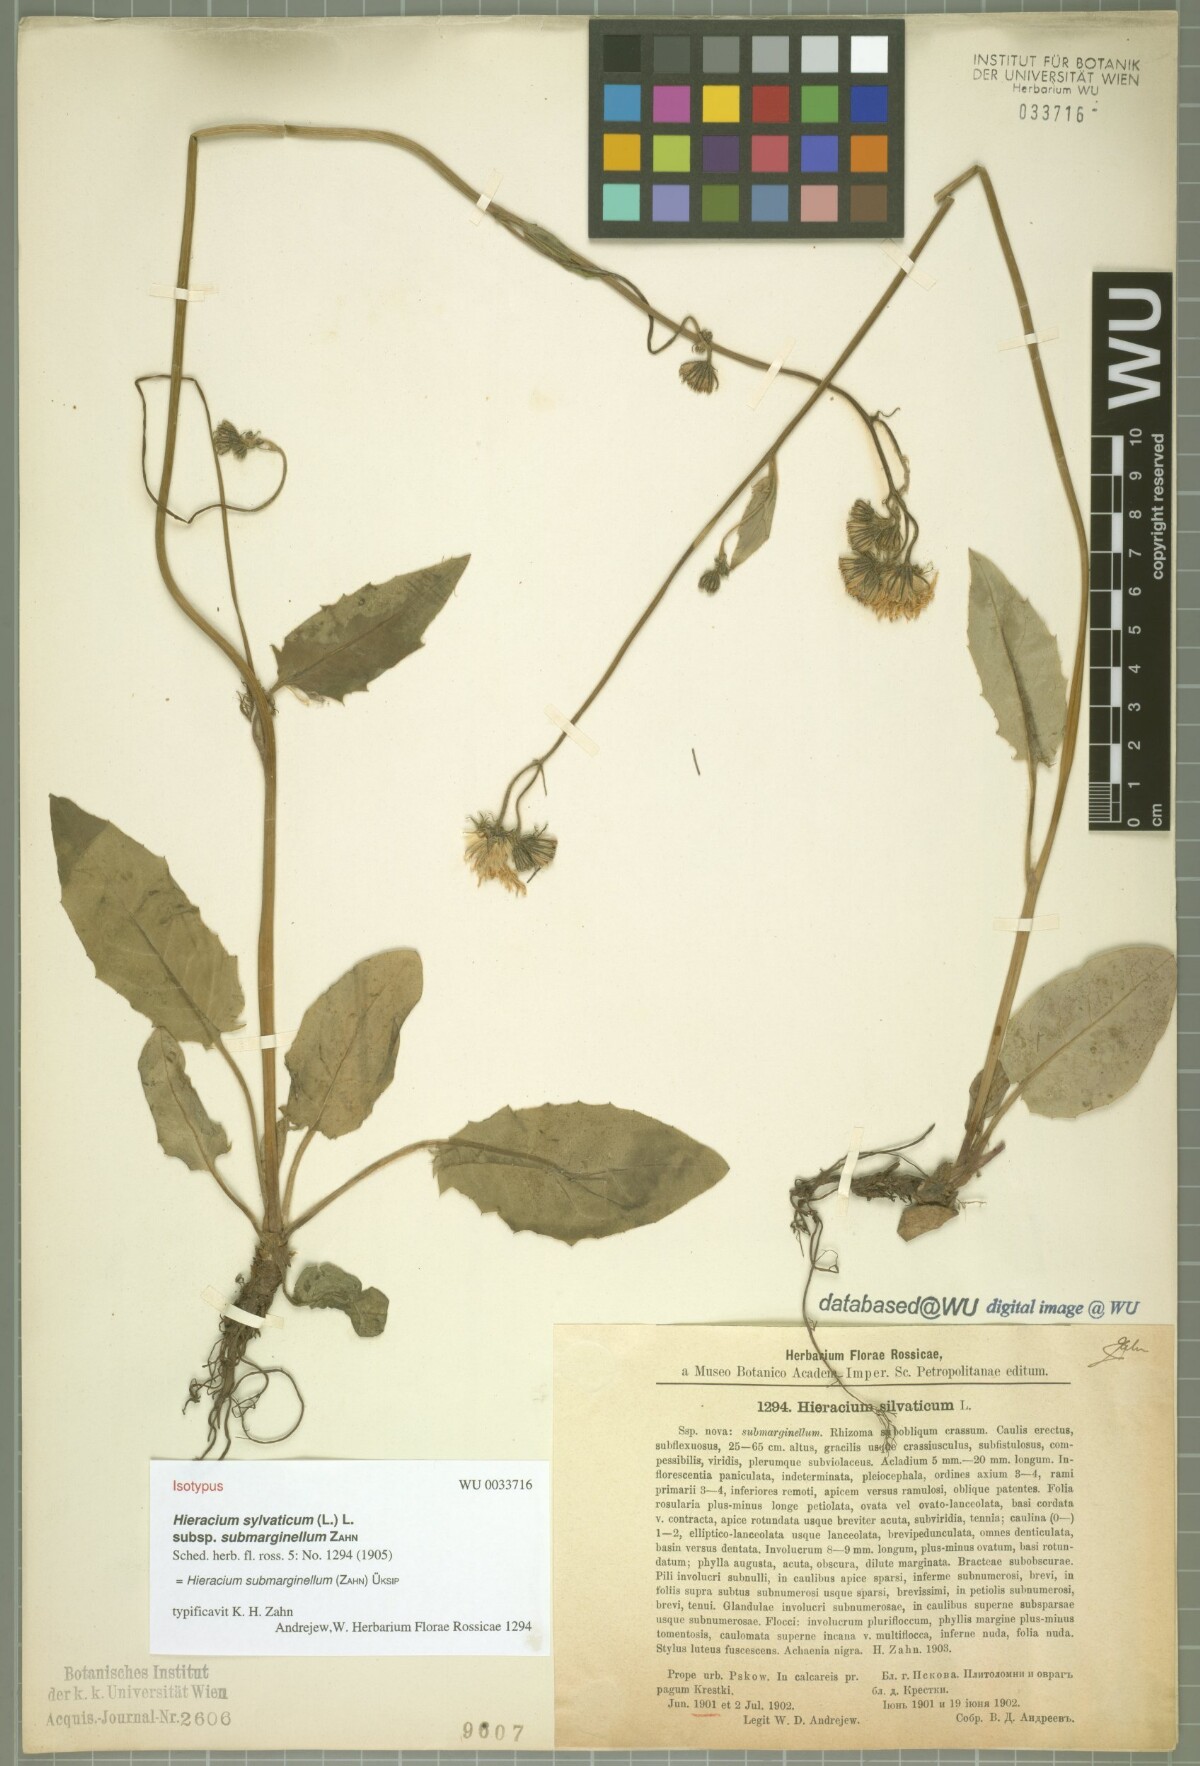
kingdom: Plantae
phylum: Tracheophyta
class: Magnoliopsida
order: Asterales
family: Asteraceae
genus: Hieracium
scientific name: Hieracium submarginellum
